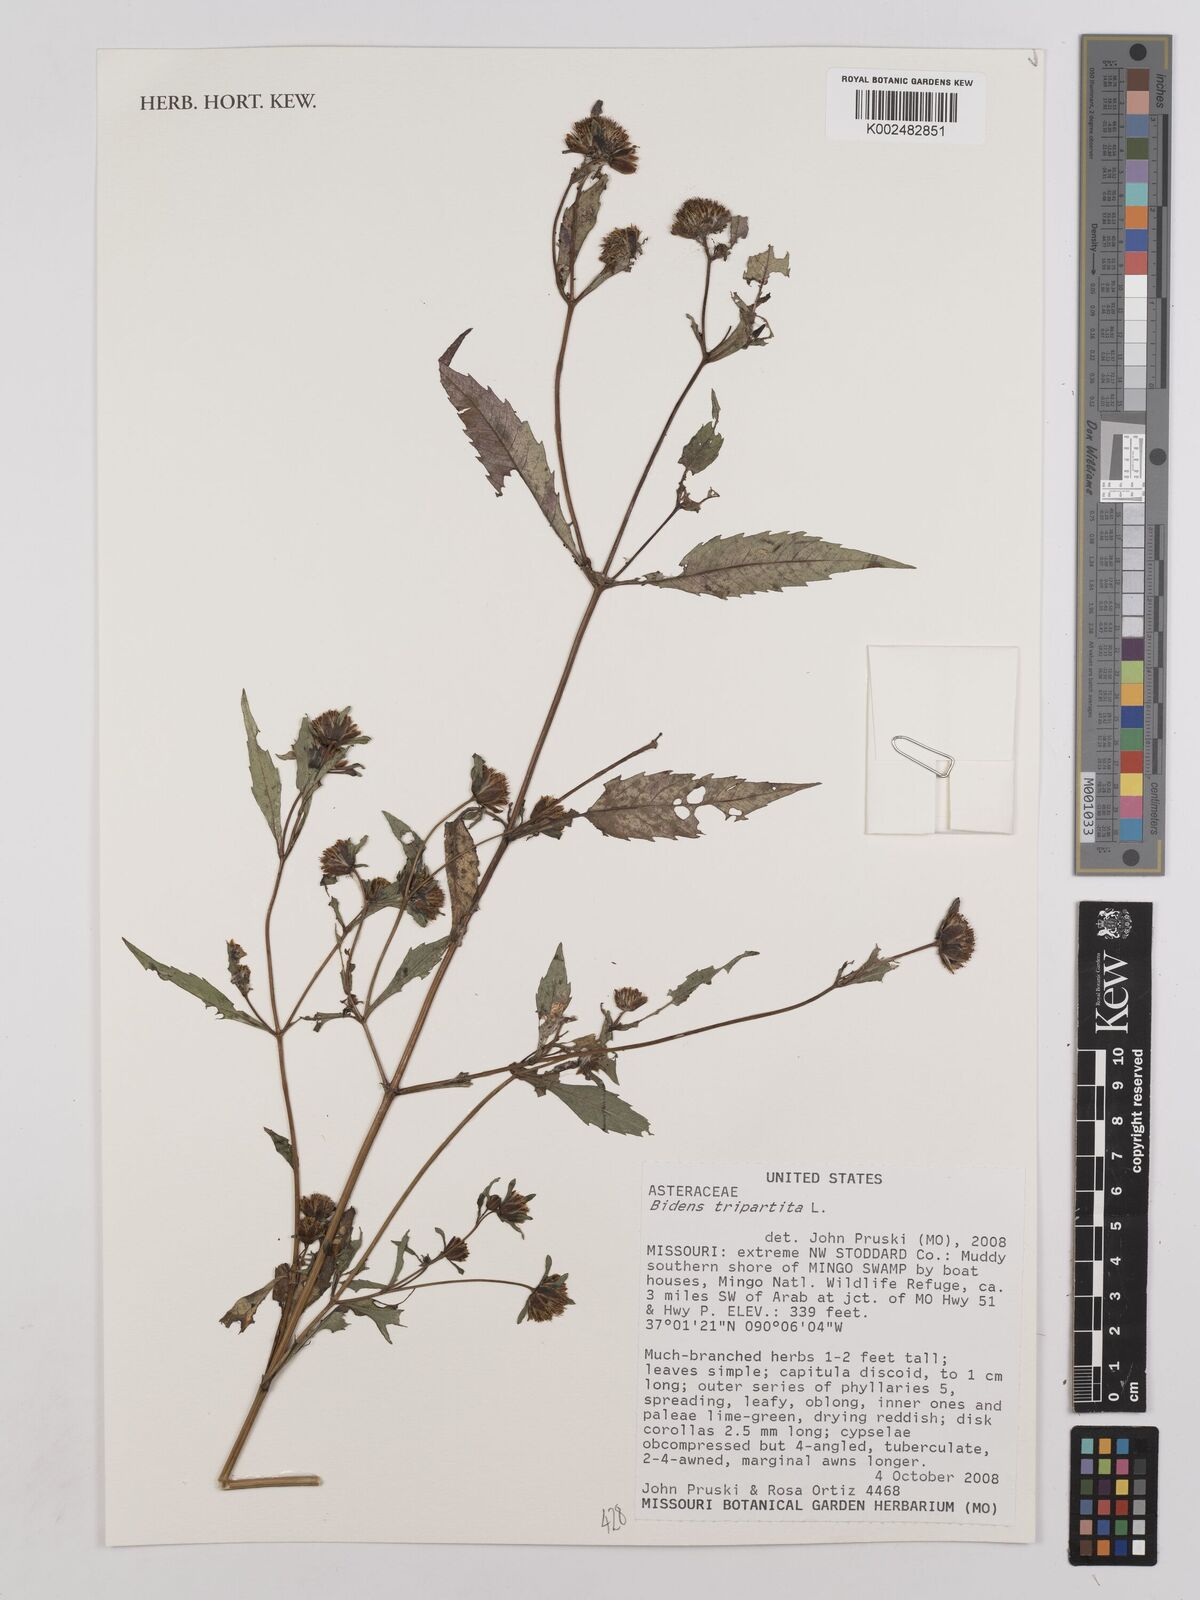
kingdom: Plantae
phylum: Tracheophyta
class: Magnoliopsida
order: Asterales
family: Asteraceae
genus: Bidens
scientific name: Bidens tripartita
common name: Trifid bur-marigold
